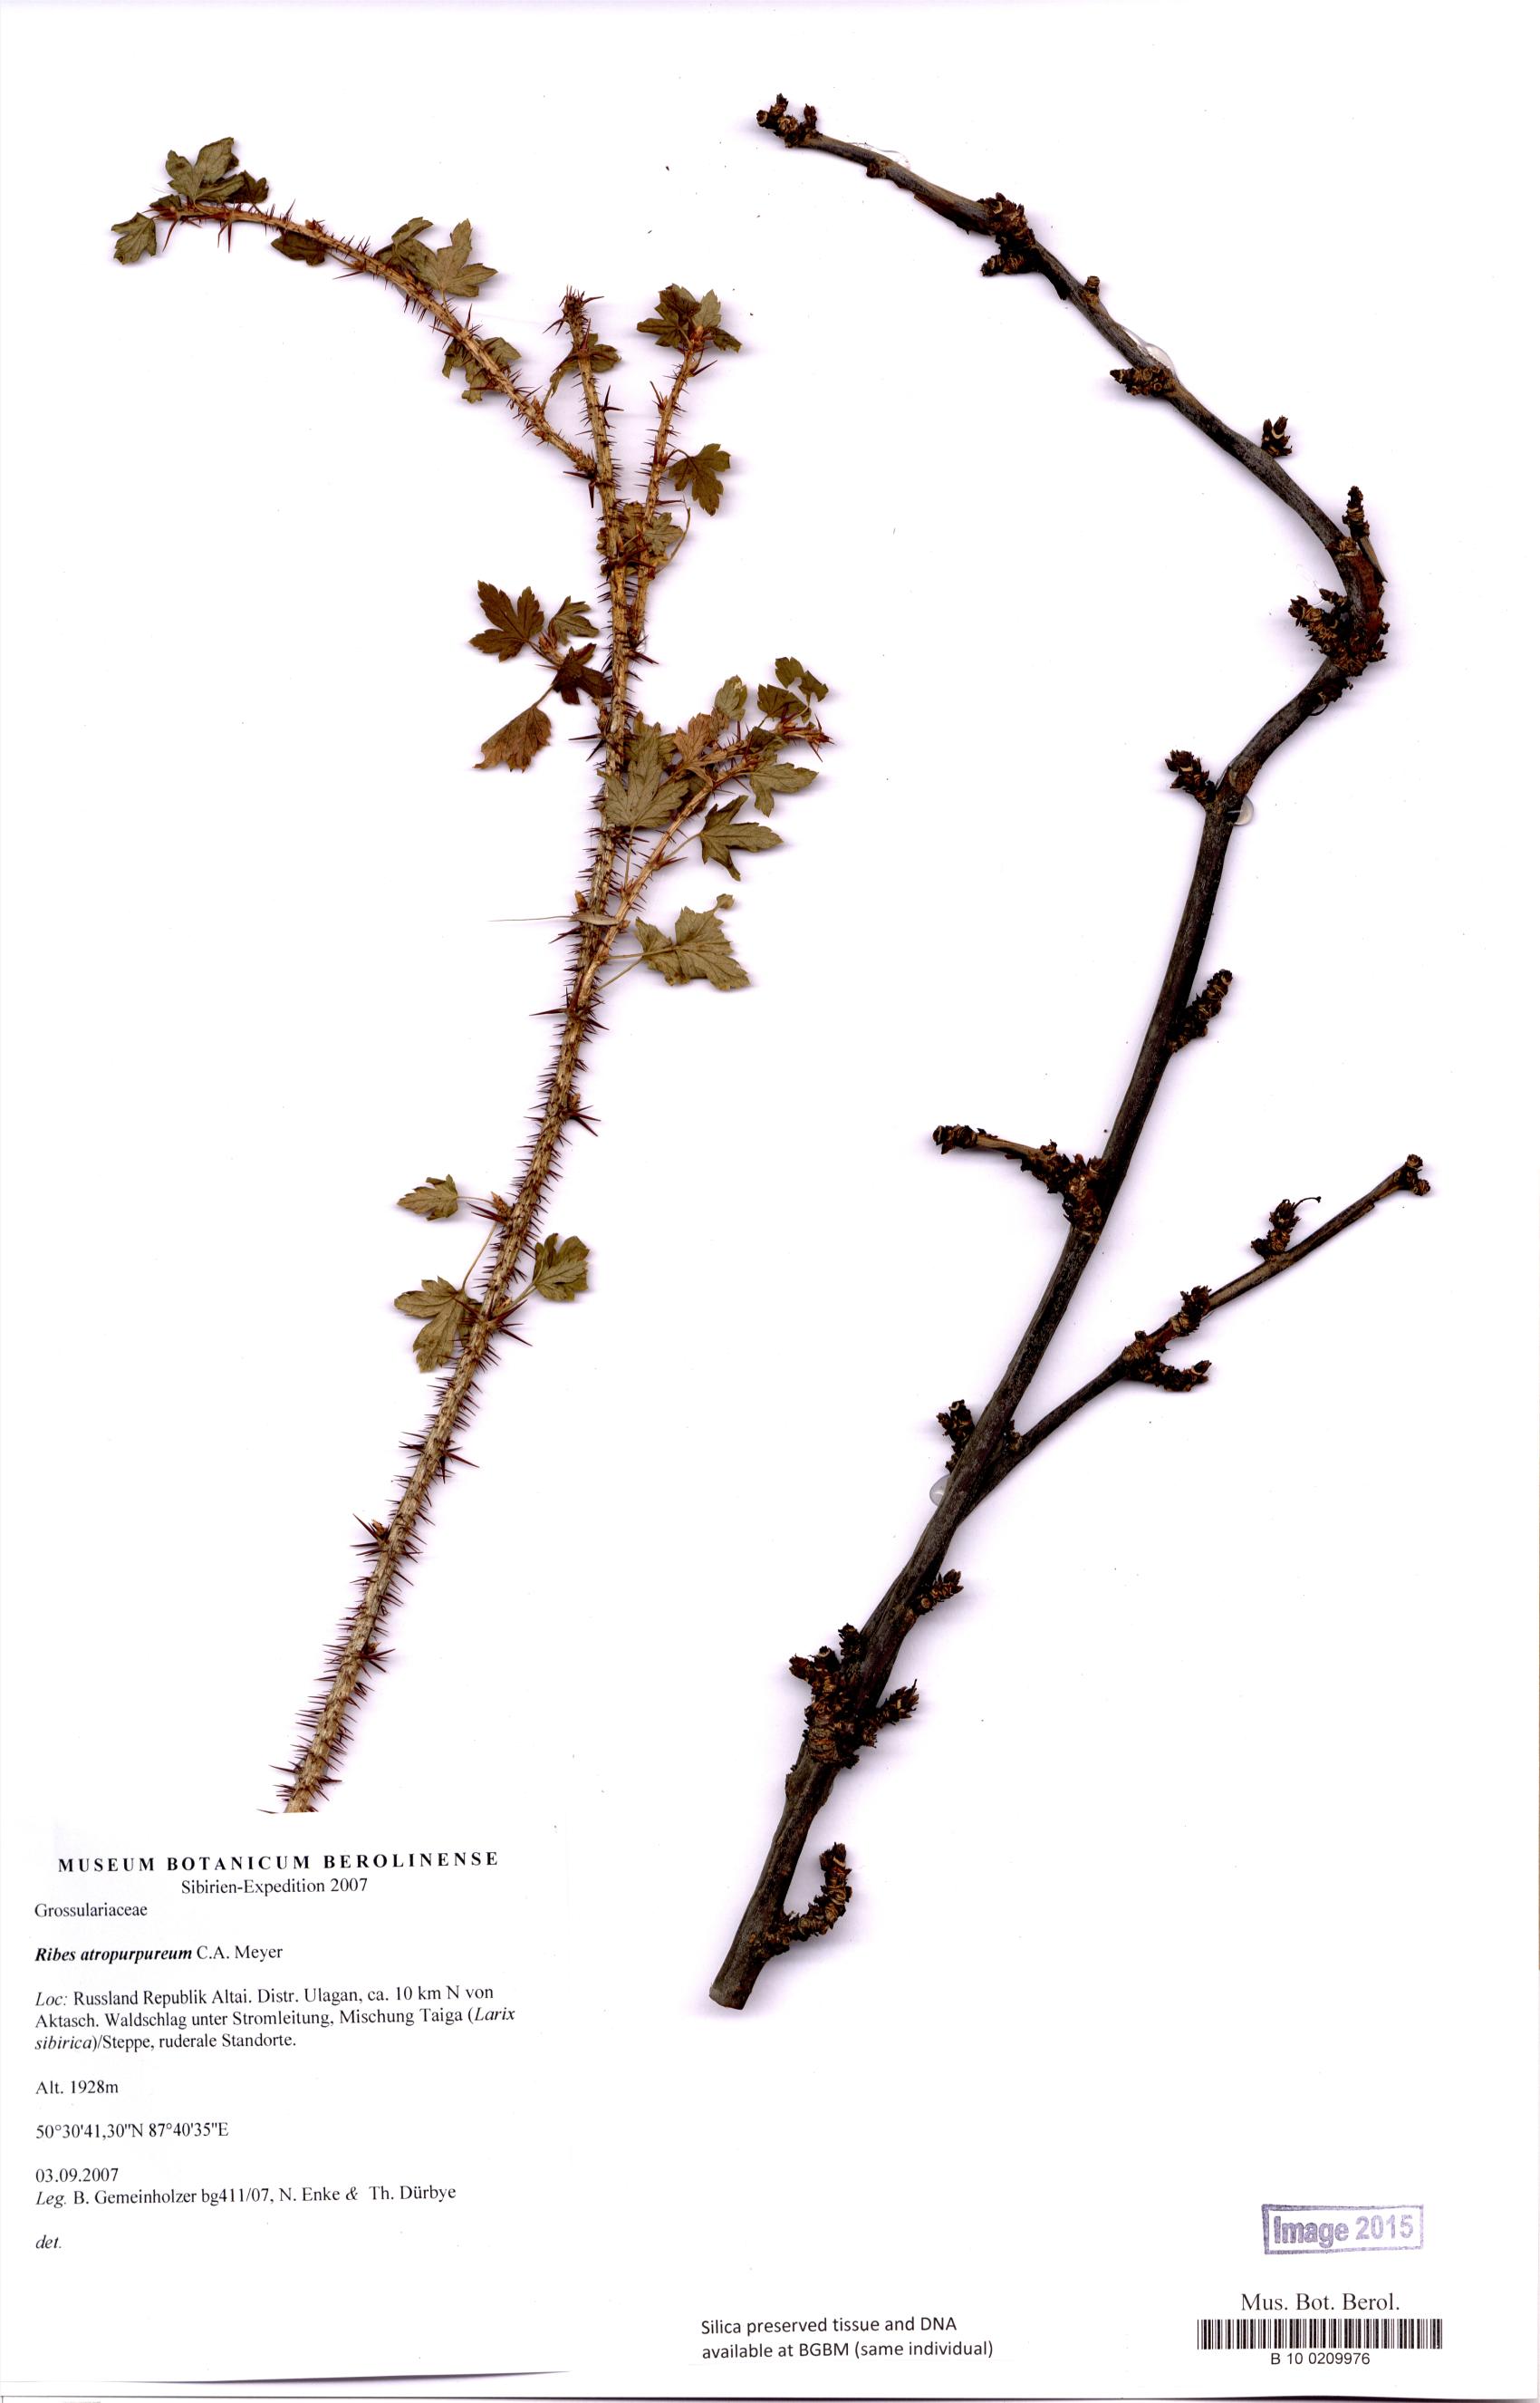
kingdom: Plantae
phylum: Tracheophyta
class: Magnoliopsida
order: Saxifragales
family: Grossulariaceae
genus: Ribes
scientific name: Ribes petraeum
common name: Rock currant
